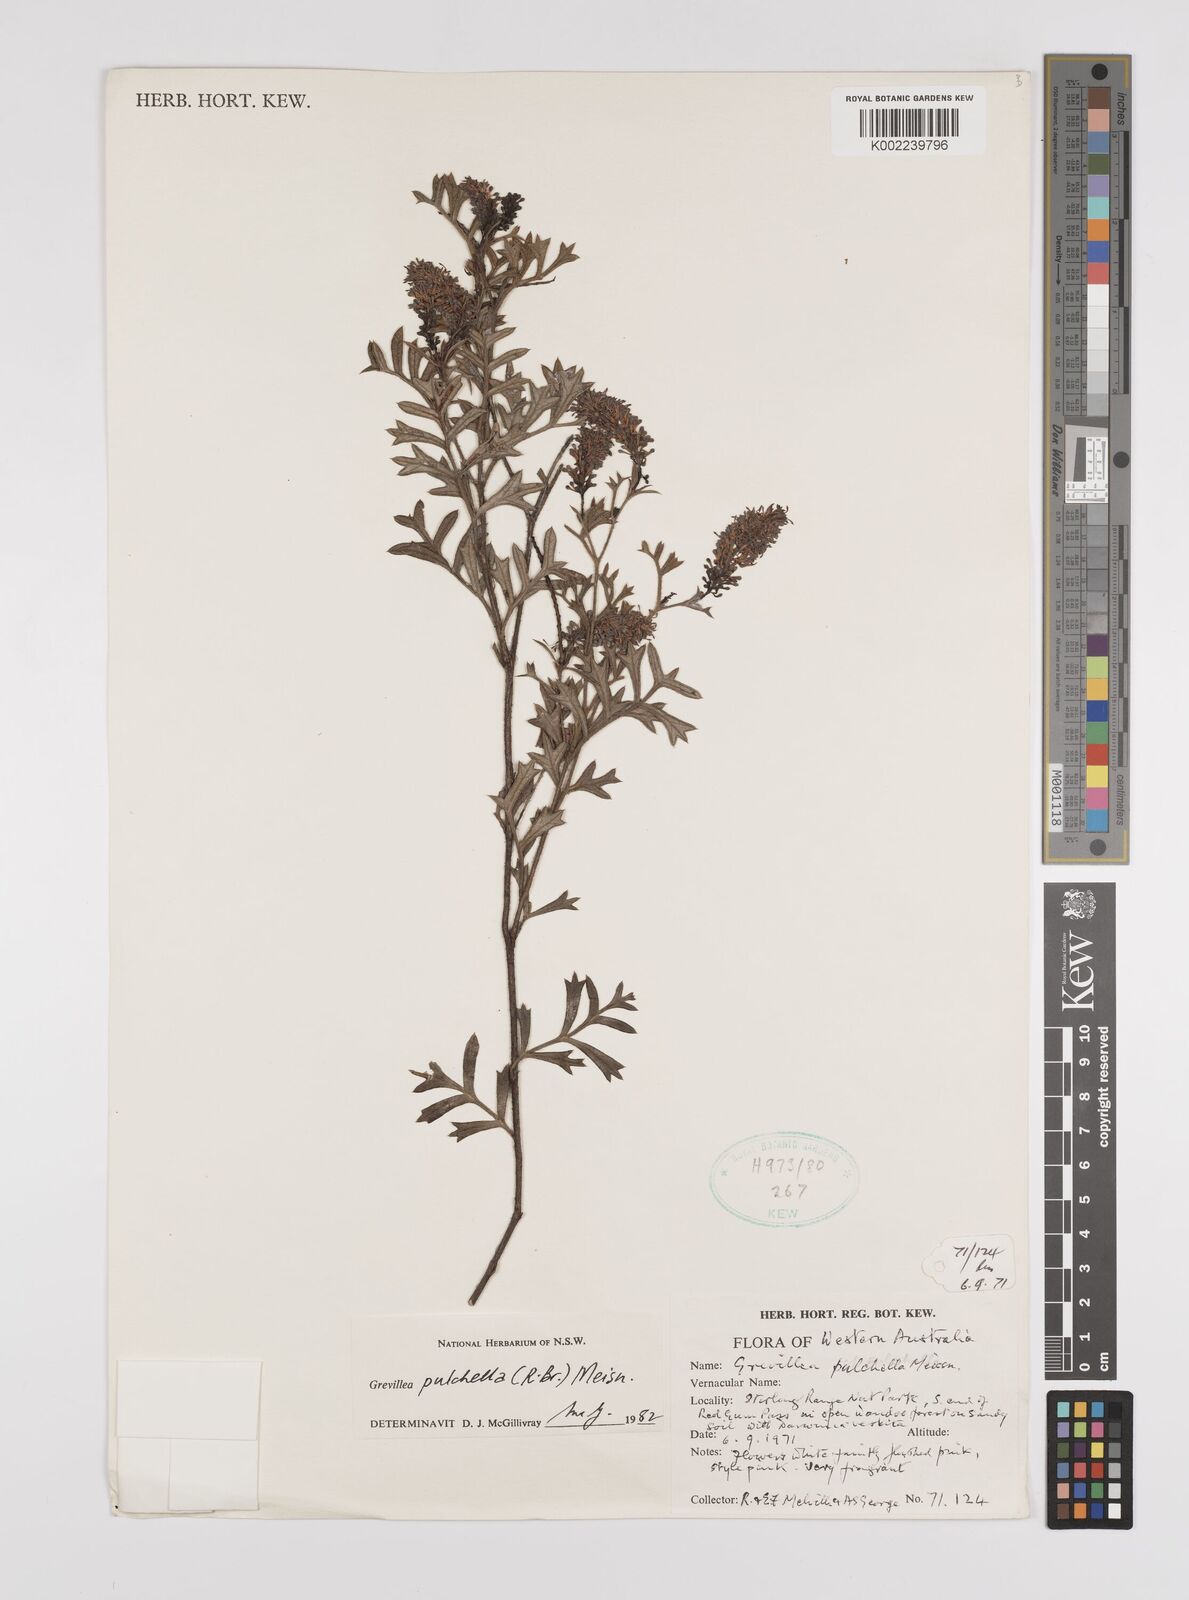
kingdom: Plantae
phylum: Tracheophyta
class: Magnoliopsida
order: Proteales
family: Proteaceae
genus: Grevillea
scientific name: Grevillea pulchella
